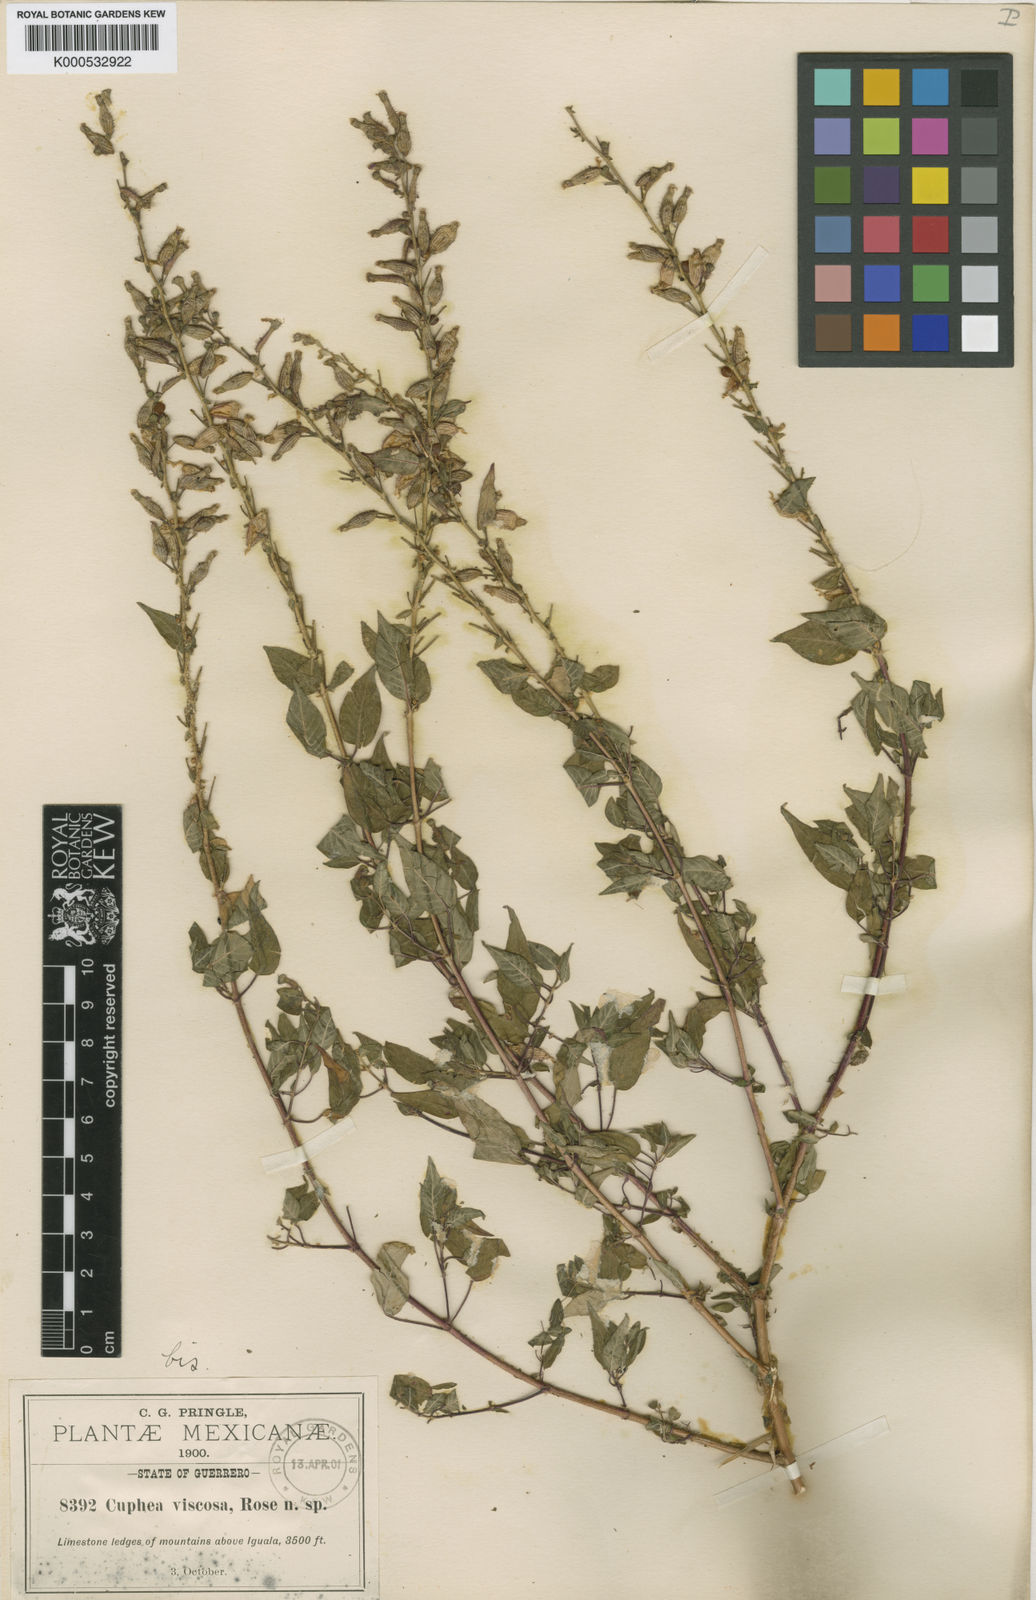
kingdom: Plantae
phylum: Tracheophyta
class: Magnoliopsida
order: Myrtales
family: Lythraceae
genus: Cuphea
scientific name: Cuphea
